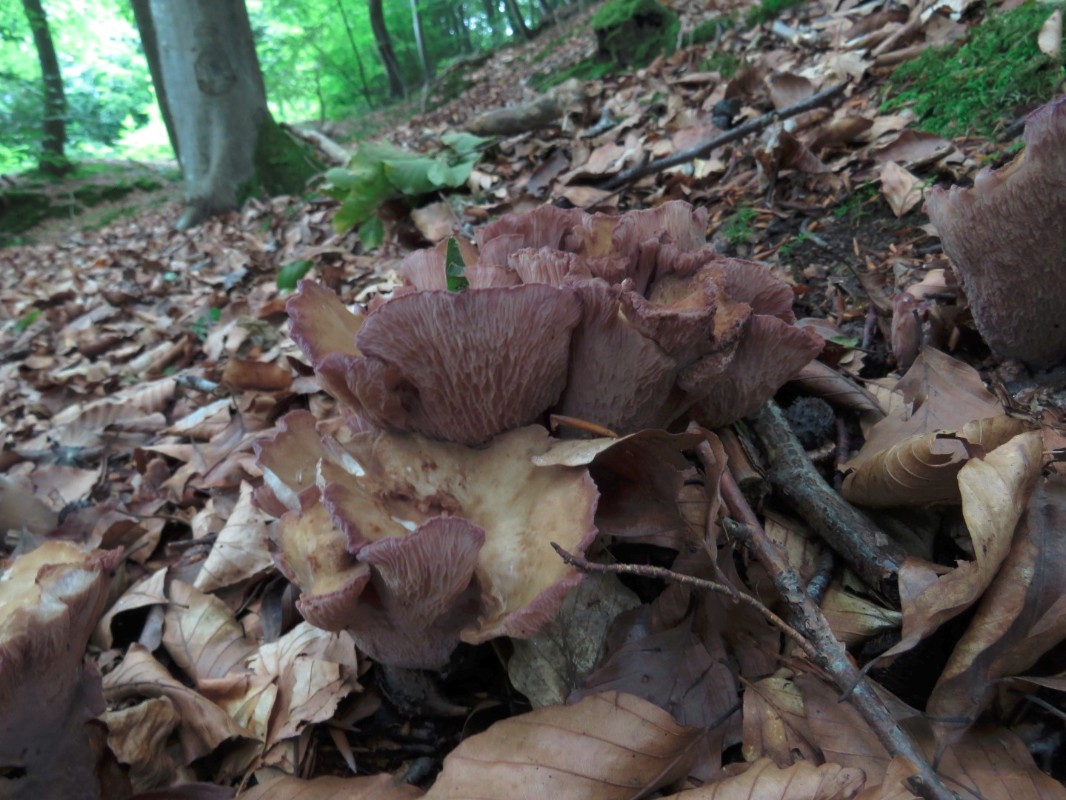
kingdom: Fungi
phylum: Basidiomycota
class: Agaricomycetes
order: Gomphales
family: Gomphaceae
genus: Gomphus
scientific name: Gomphus clavatus
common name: køllekantarel
